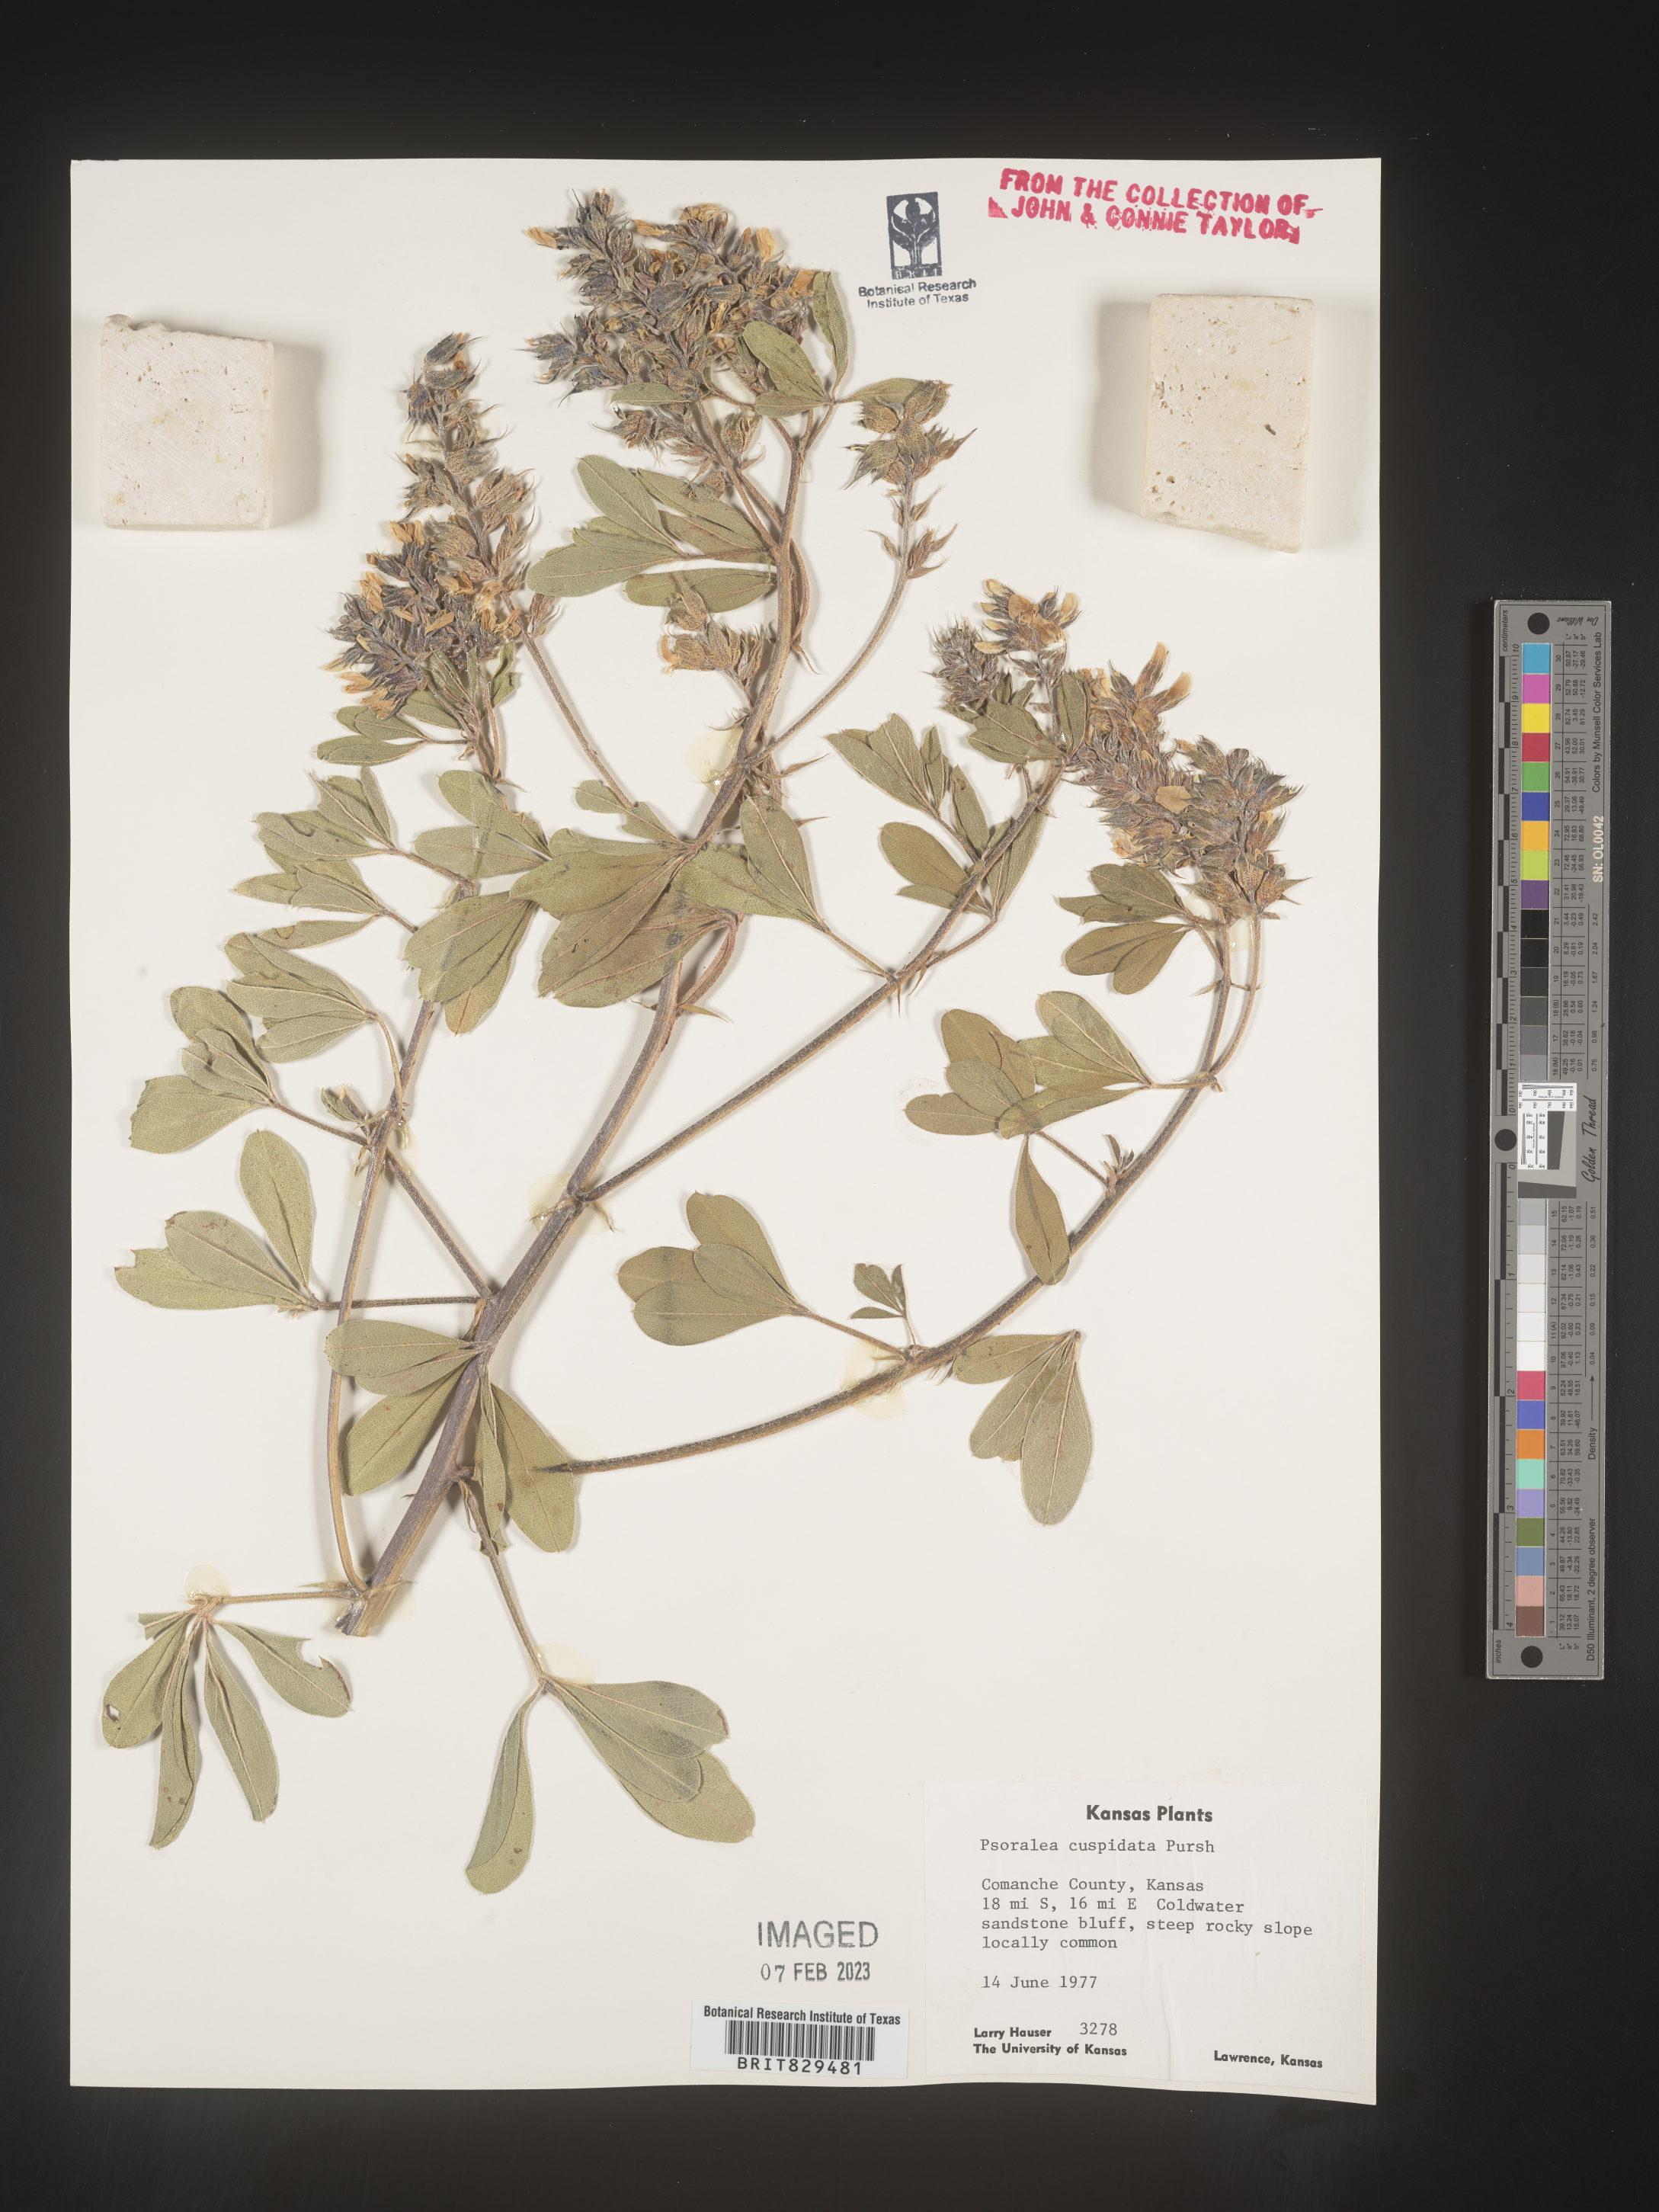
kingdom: Plantae
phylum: Tracheophyta
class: Magnoliopsida
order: Fabales
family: Fabaceae
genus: Pediomelum
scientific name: Pediomelum cuspidatum
